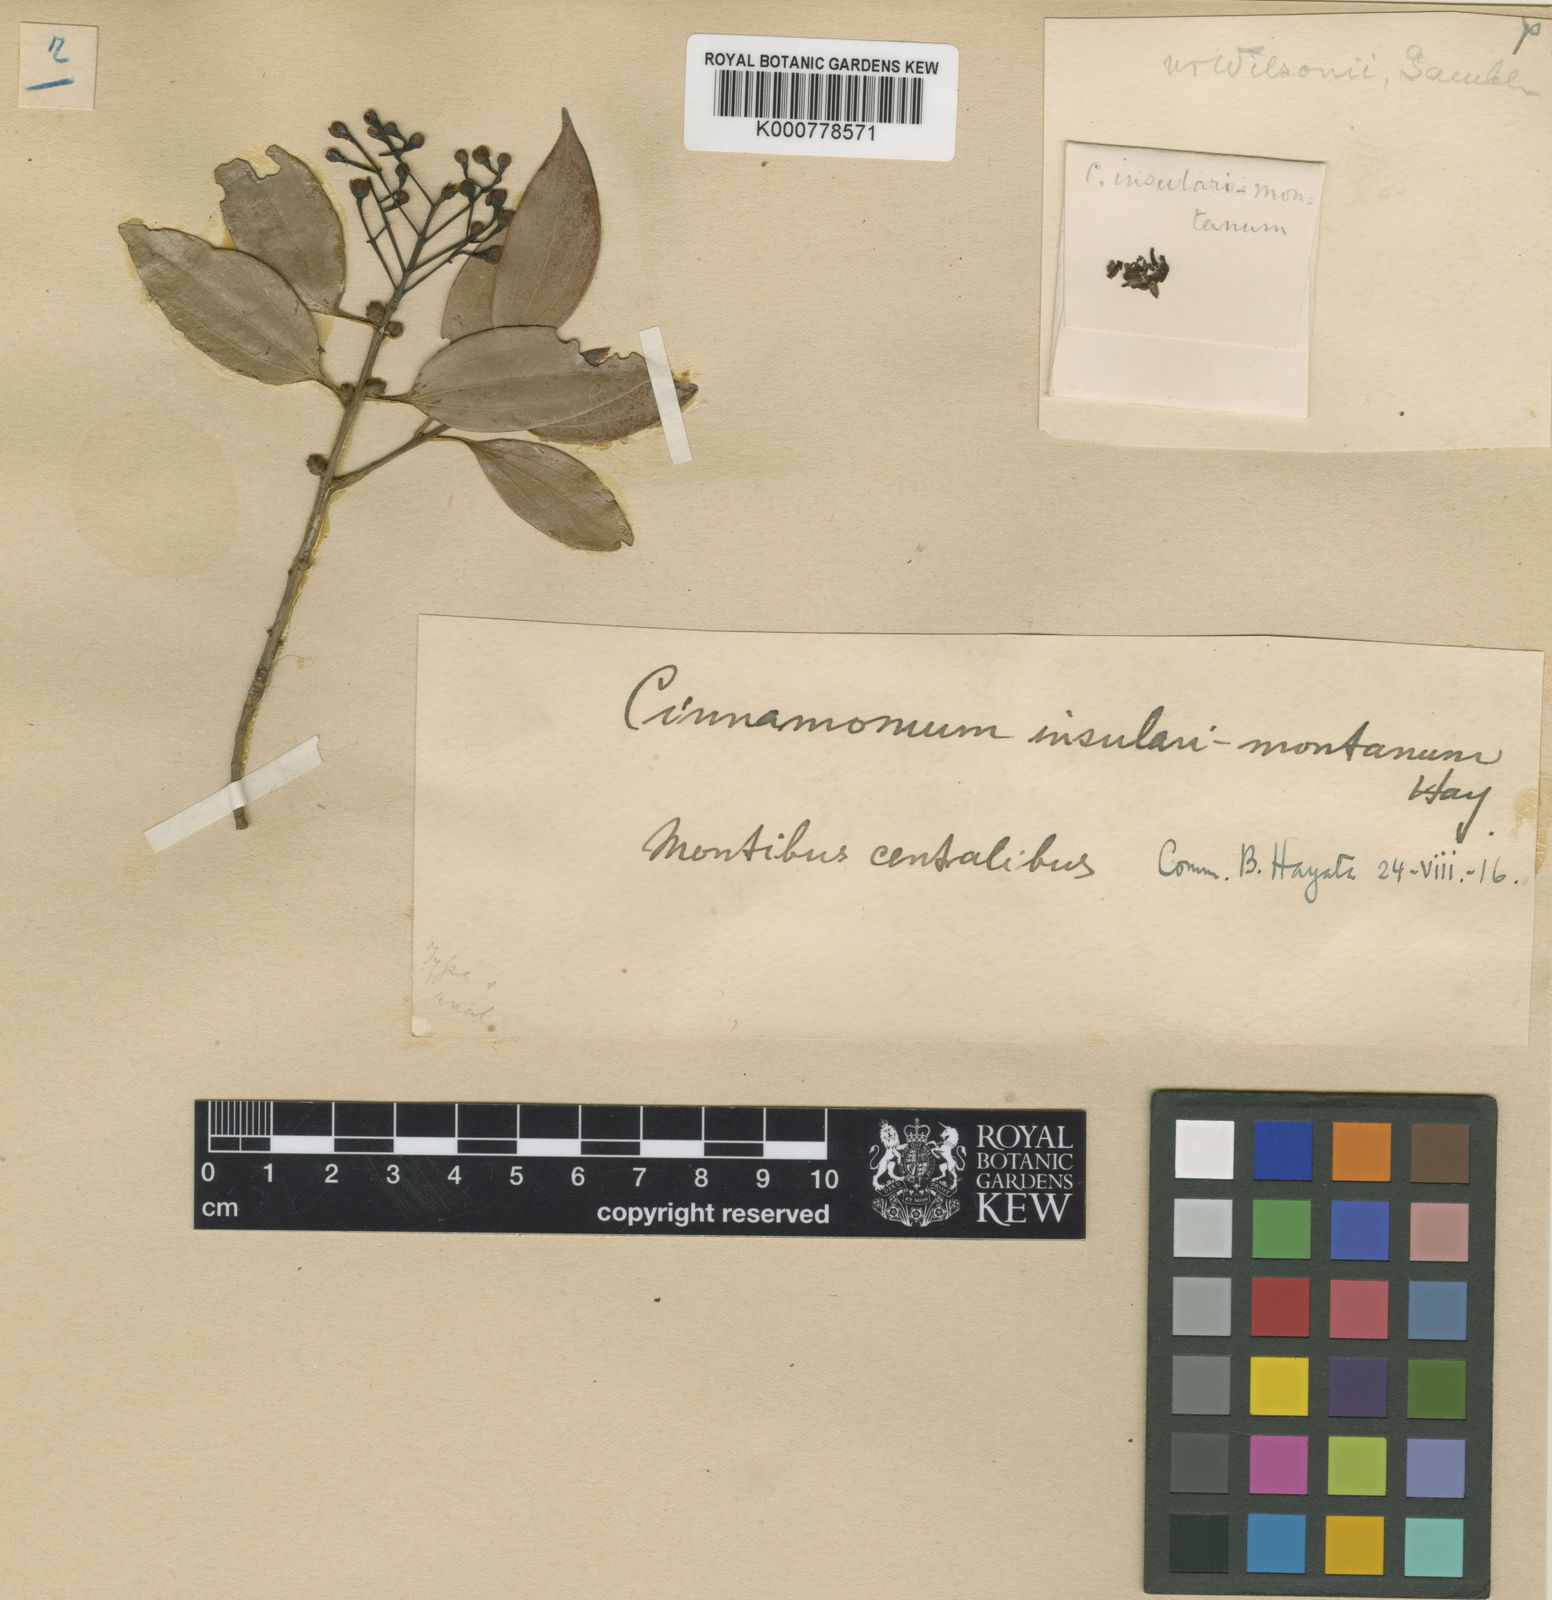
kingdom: Plantae
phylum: Tracheophyta
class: Magnoliopsida
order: Laurales
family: Lauraceae
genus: Cinnamomum
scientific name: Cinnamomum chekiangense
